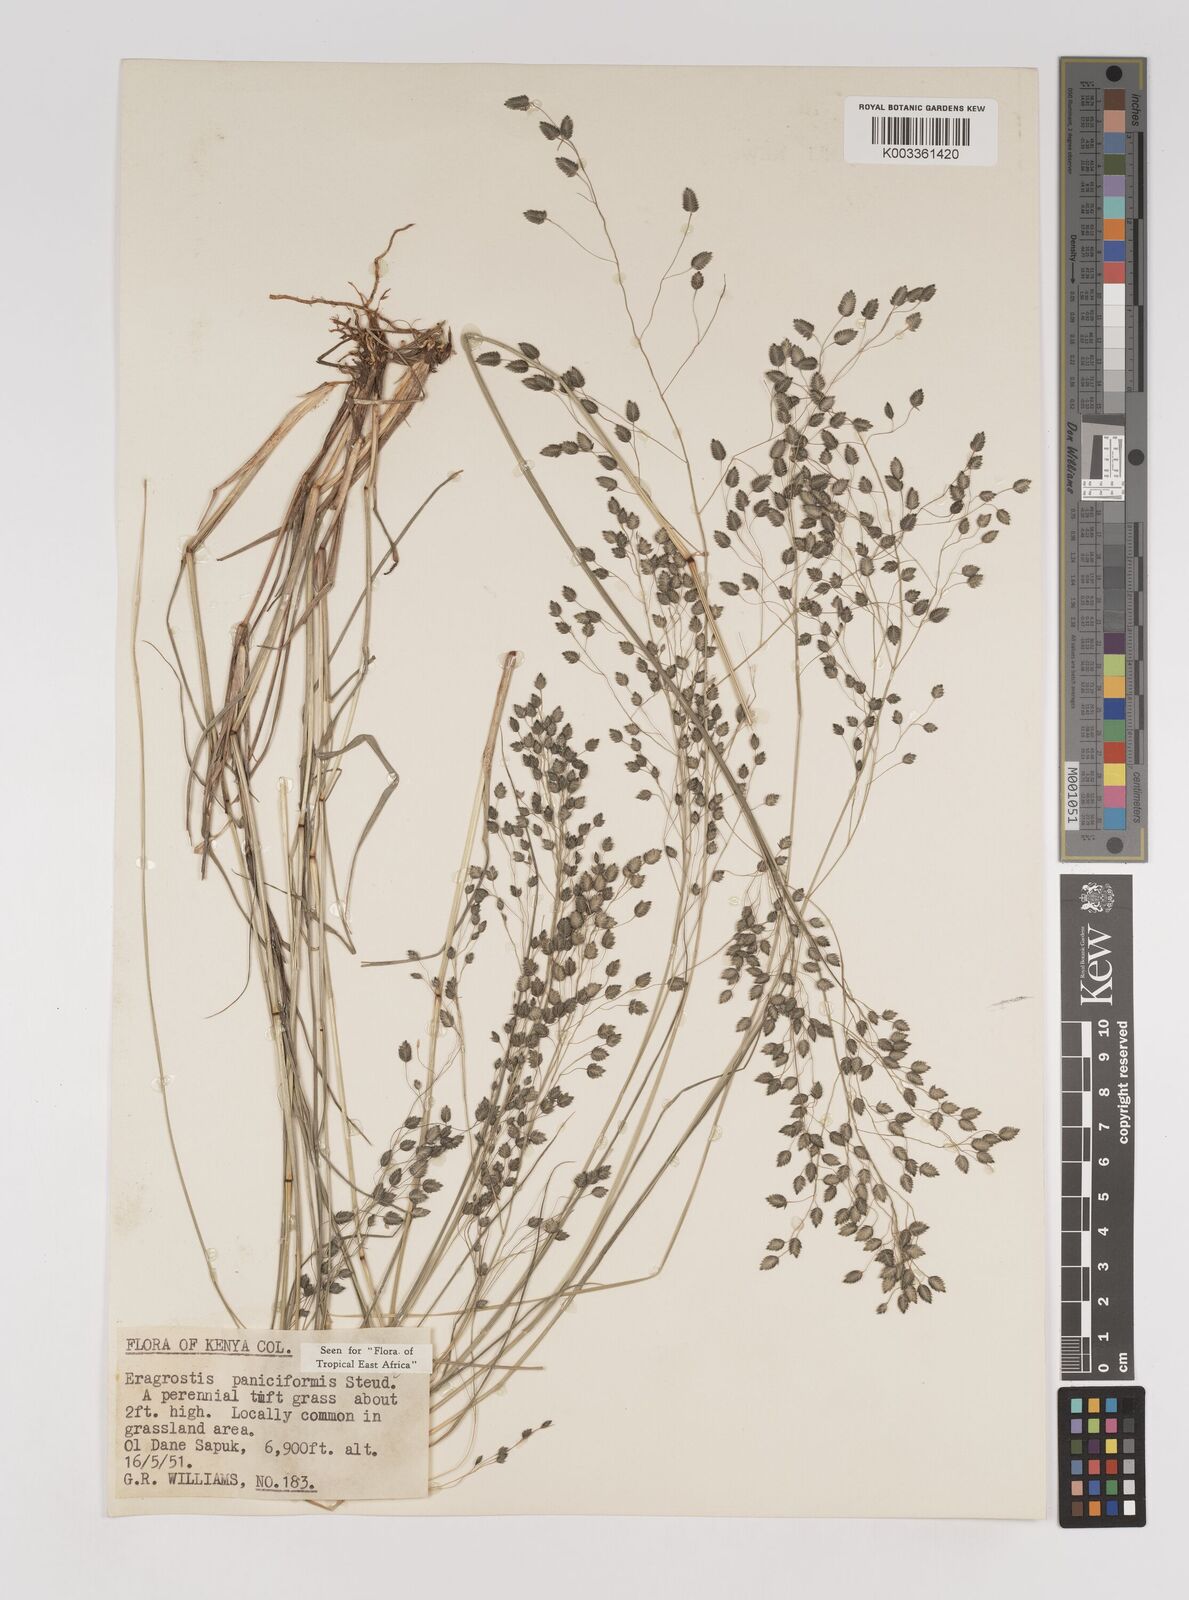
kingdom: Plantae
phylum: Tracheophyta
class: Liliopsida
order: Poales
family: Poaceae
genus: Eragrostis
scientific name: Eragrostis paniciformis
